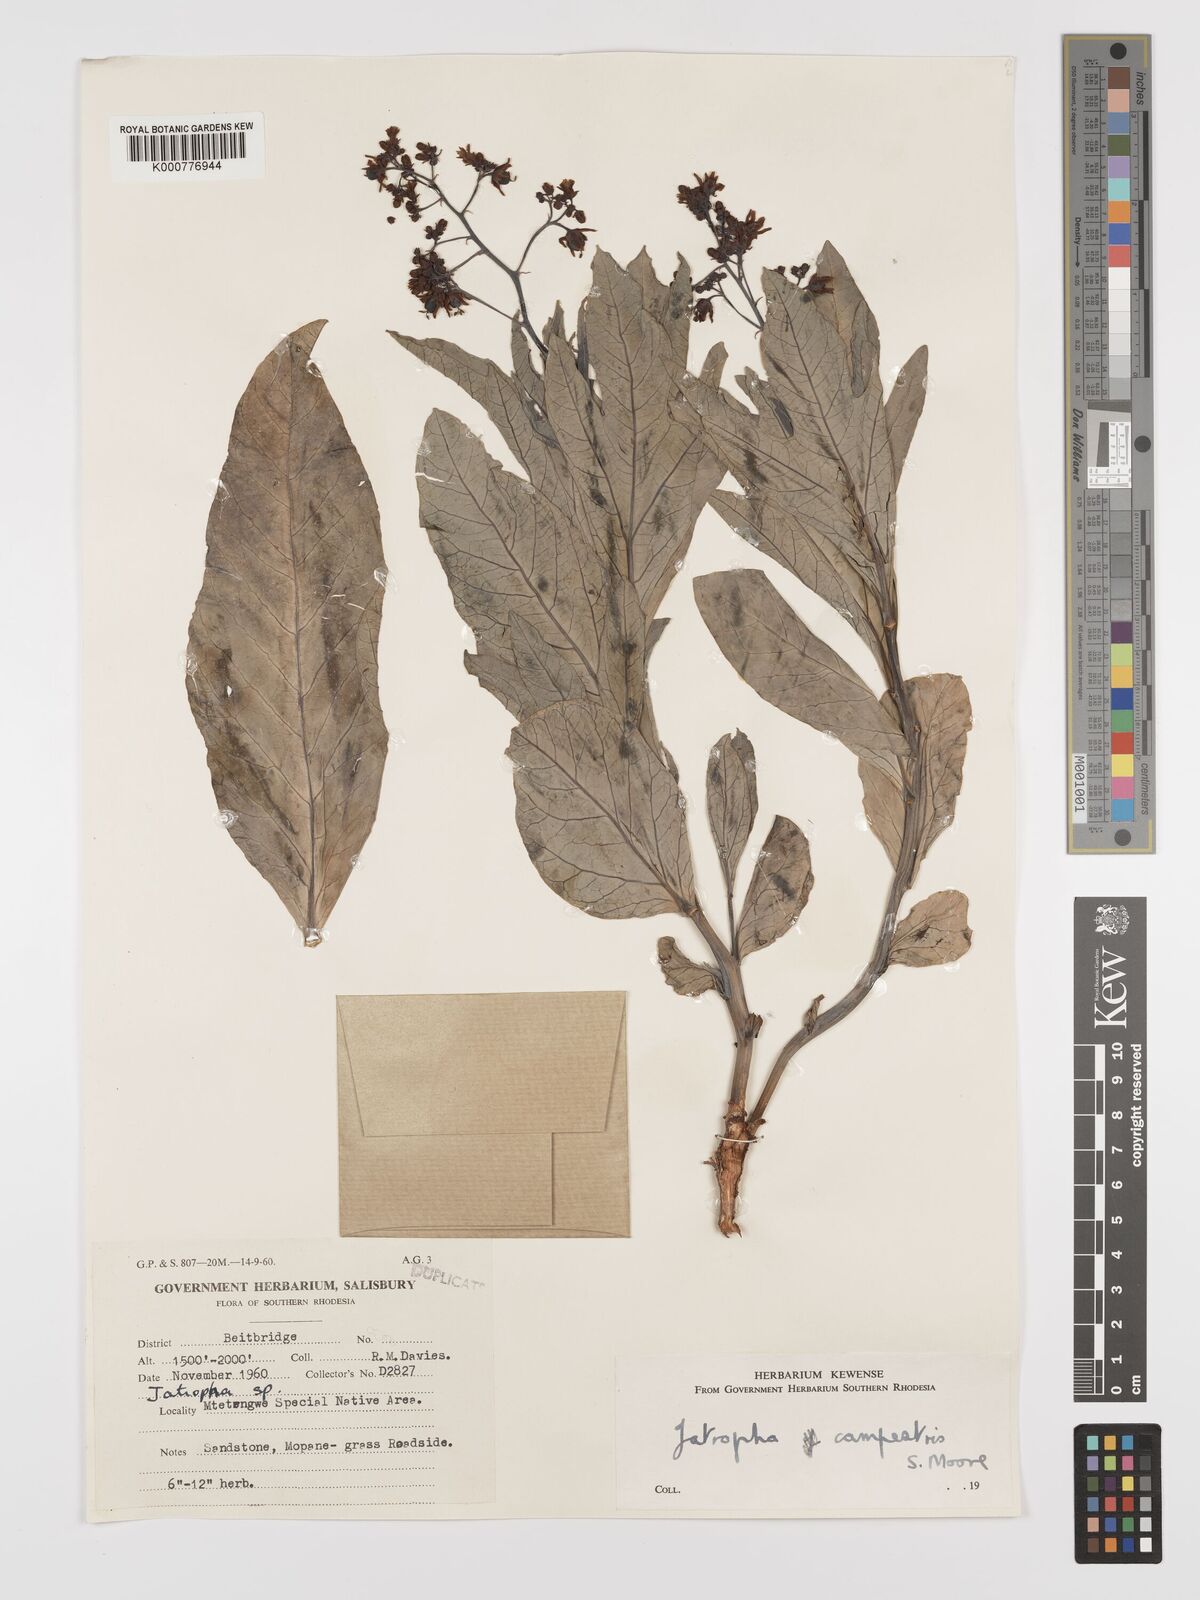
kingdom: Plantae
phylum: Tracheophyta
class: Magnoliopsida
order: Malpighiales
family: Euphorbiaceae
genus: Jatropha
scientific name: Jatropha campestris
